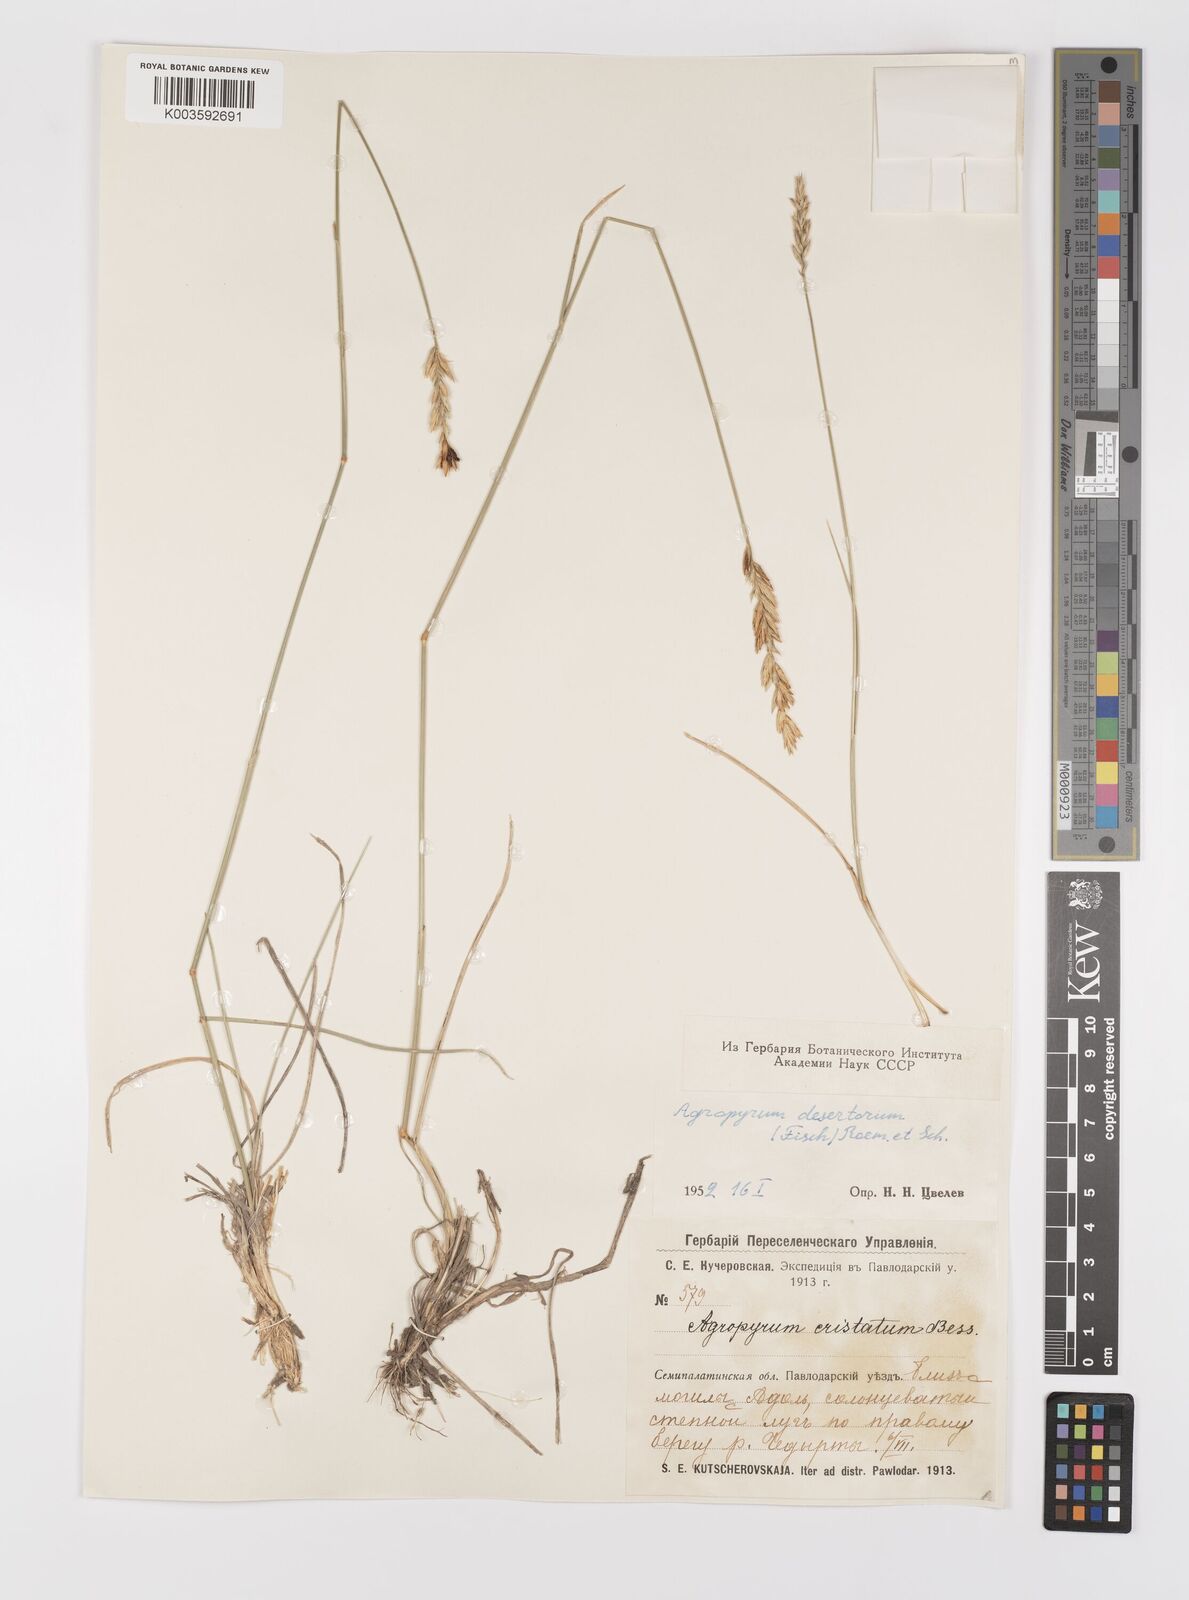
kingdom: Plantae
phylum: Tracheophyta
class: Liliopsida
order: Poales
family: Poaceae
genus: Agropyron
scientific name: Agropyron desertorum
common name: Desert wheatgrass
